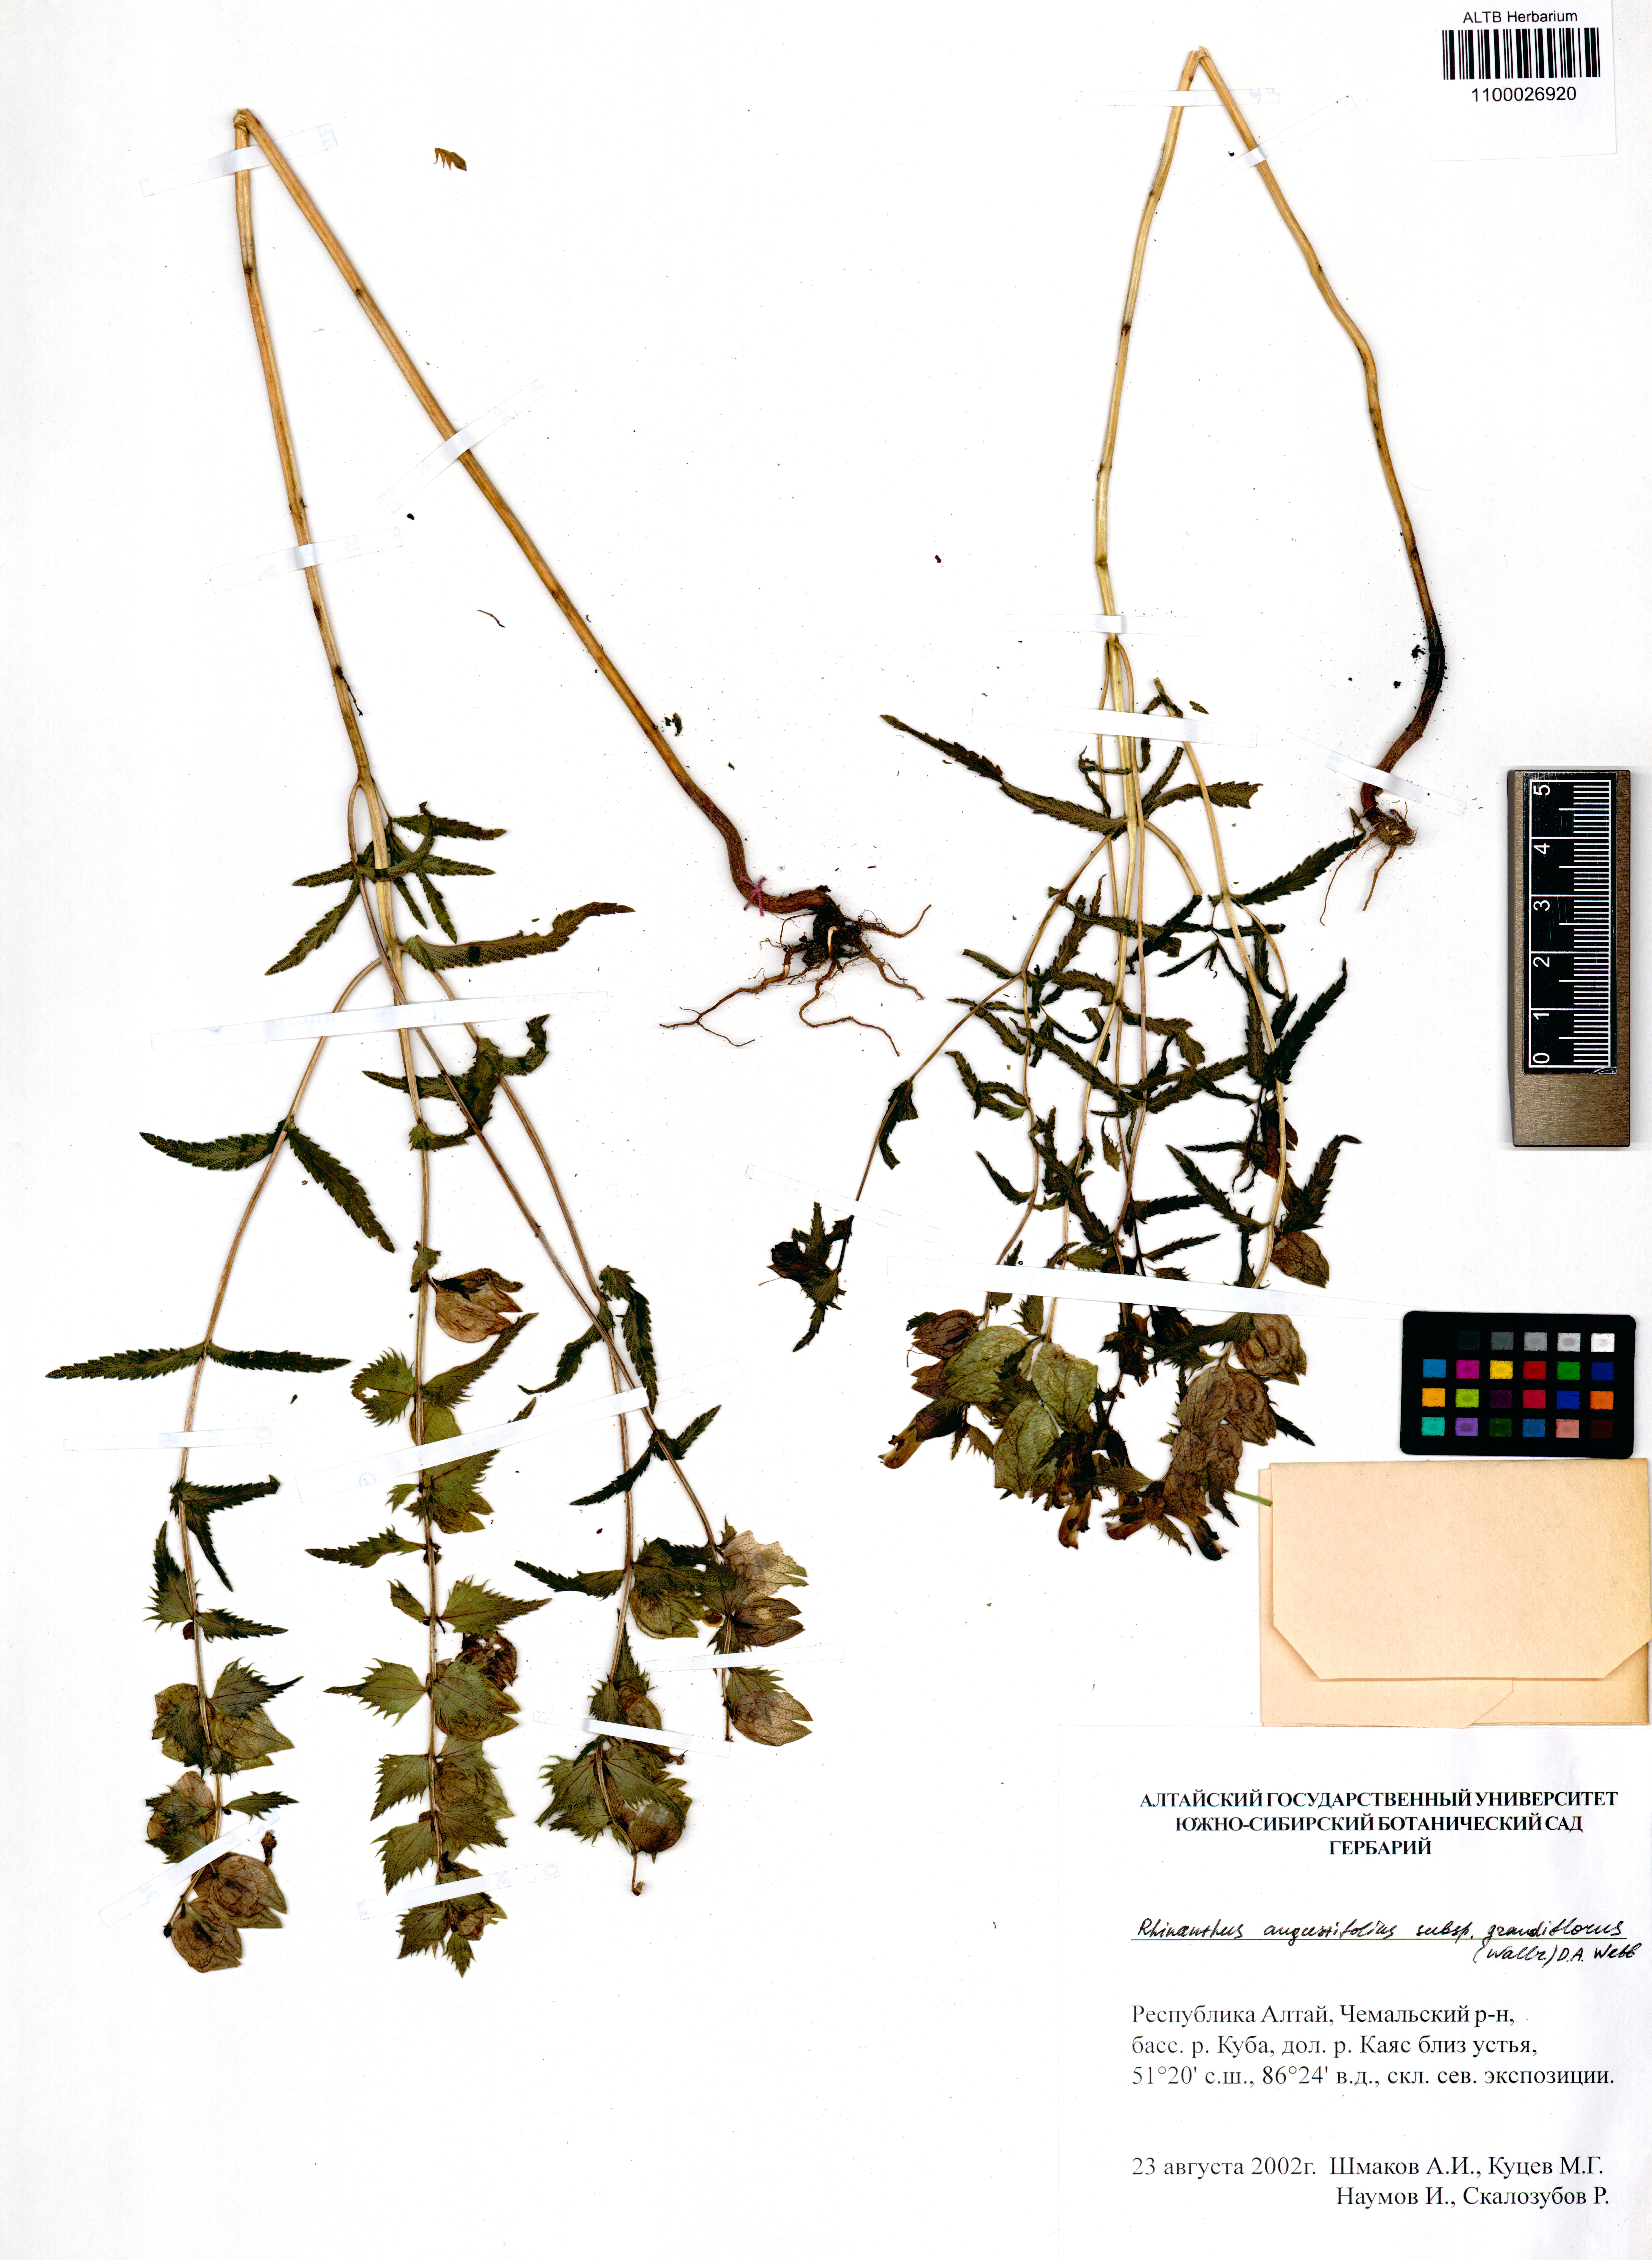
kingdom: Plantae
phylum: Tracheophyta
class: Magnoliopsida
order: Lamiales
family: Orobanchaceae
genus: Rhinanthus
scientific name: Rhinanthus serotinus
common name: Late-flowering yellow rattle
